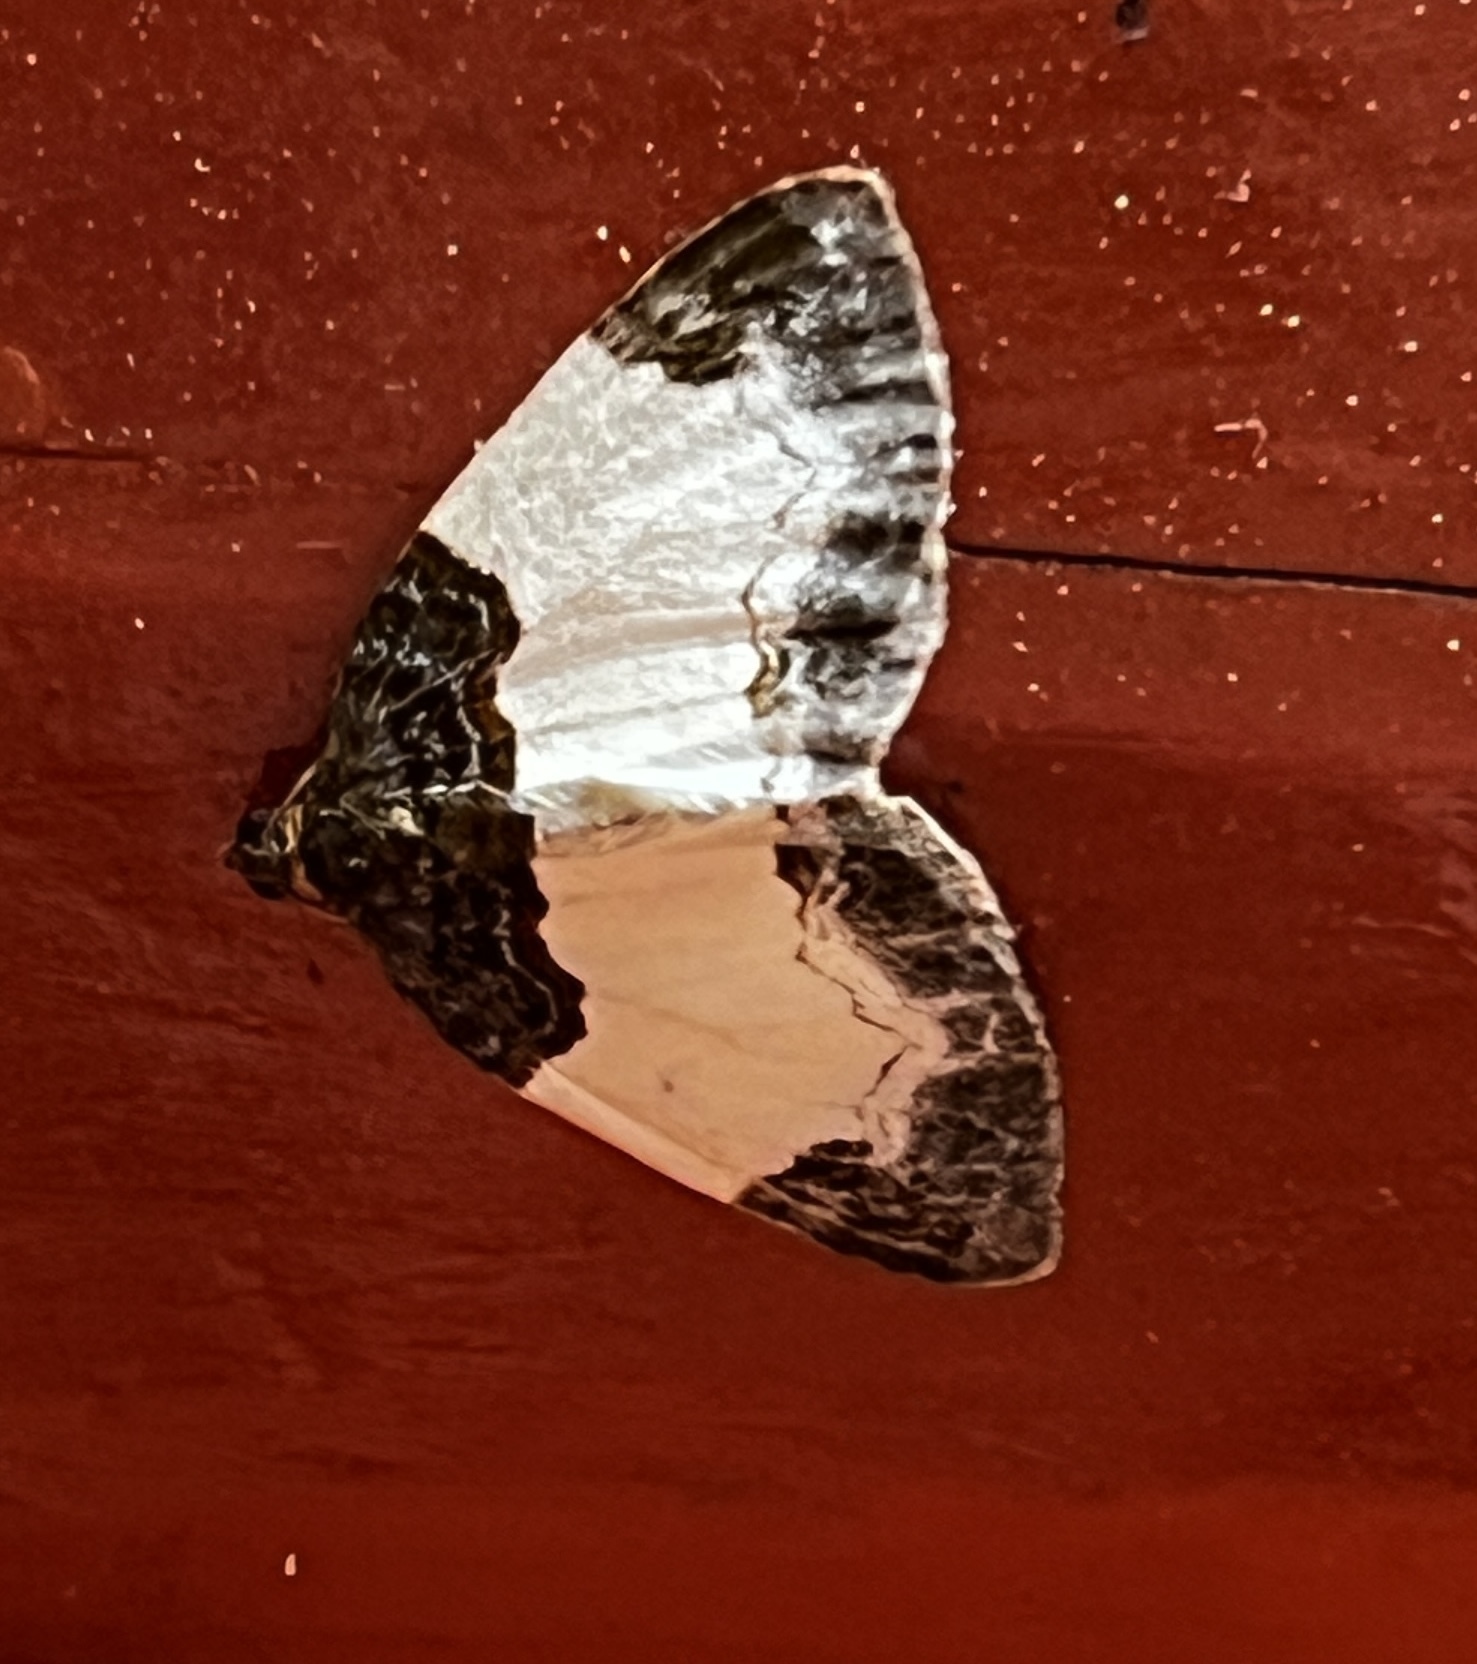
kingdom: Animalia
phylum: Arthropoda
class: Insecta
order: Lepidoptera
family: Geometridae
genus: Mesoleuca
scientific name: Mesoleuca
